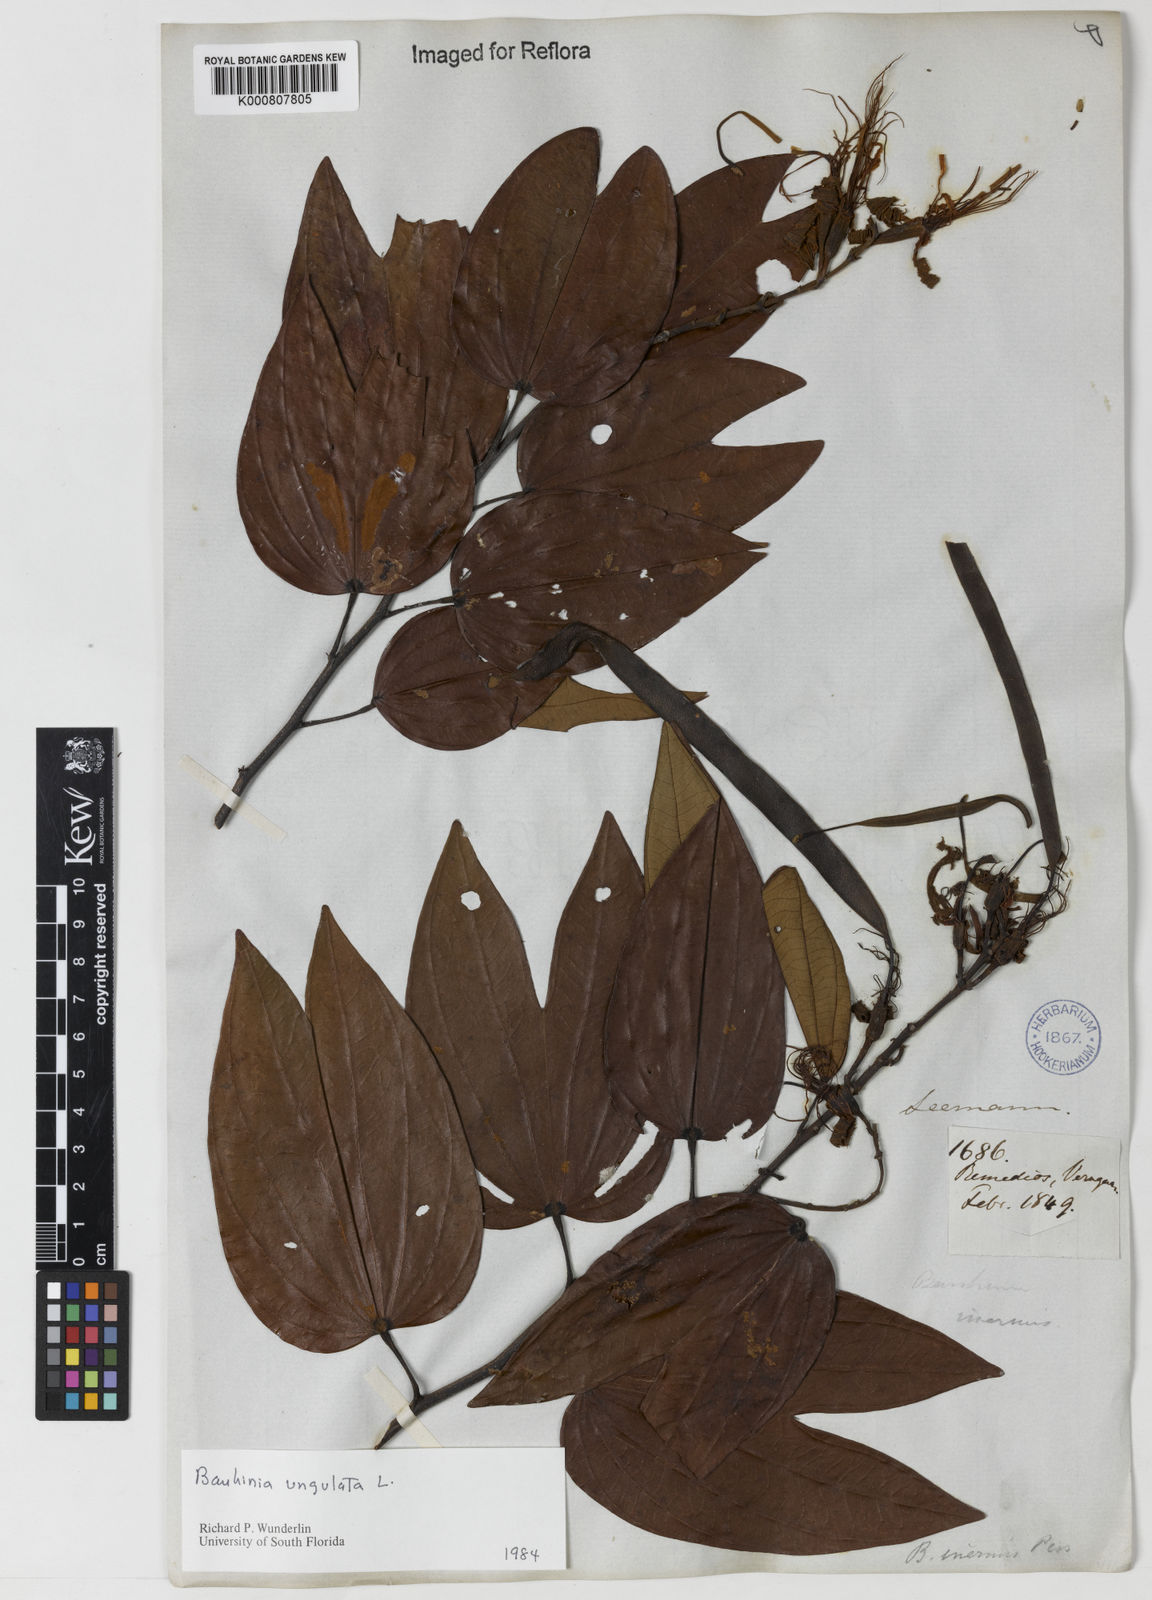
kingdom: Plantae
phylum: Tracheophyta
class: Magnoliopsida
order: Fabales
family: Fabaceae
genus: Bauhinia
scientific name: Bauhinia ungulata
